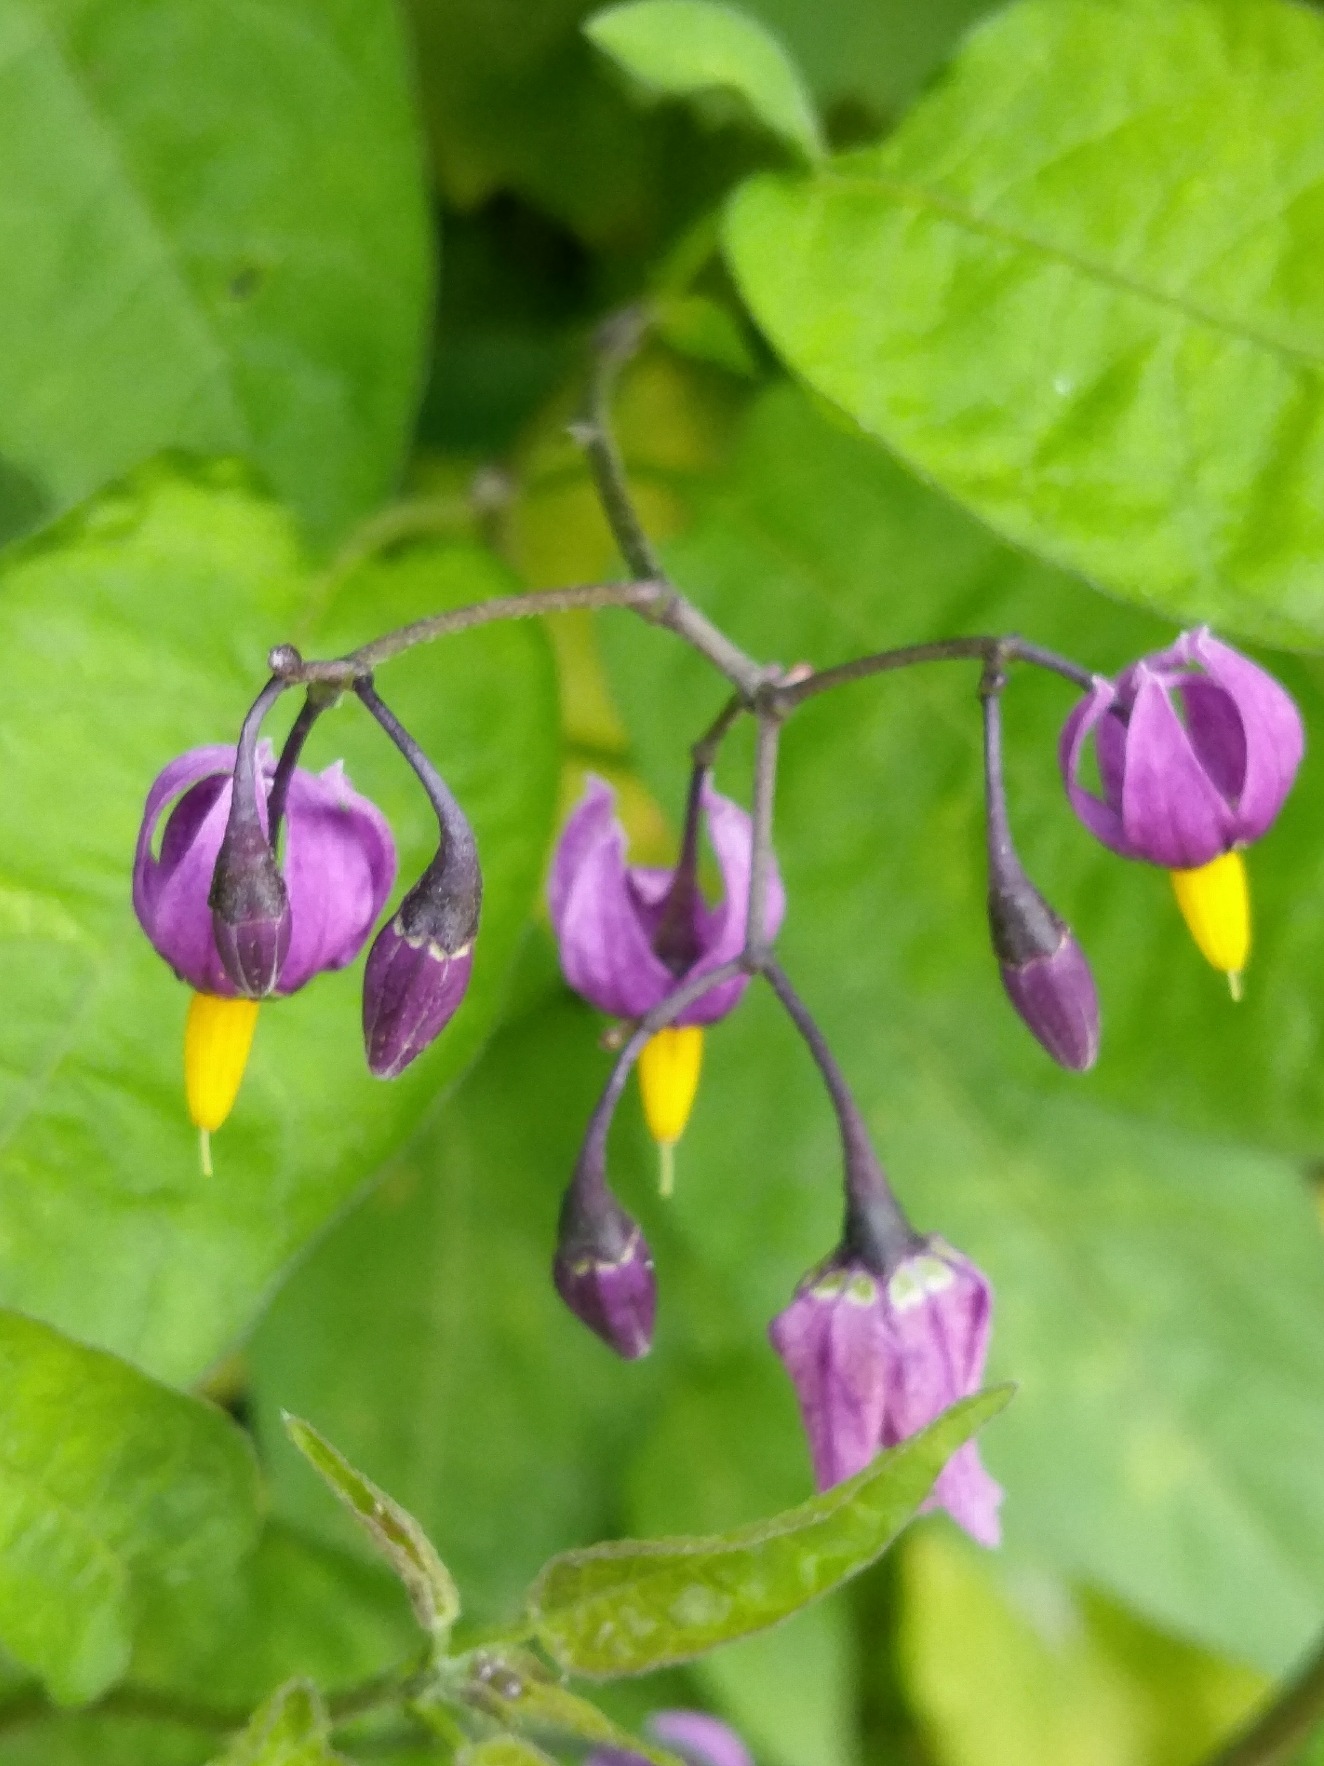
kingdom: Plantae
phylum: Tracheophyta
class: Magnoliopsida
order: Solanales
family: Solanaceae
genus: Solanum
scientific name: Solanum dulcamara
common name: Bittersød natskygge
